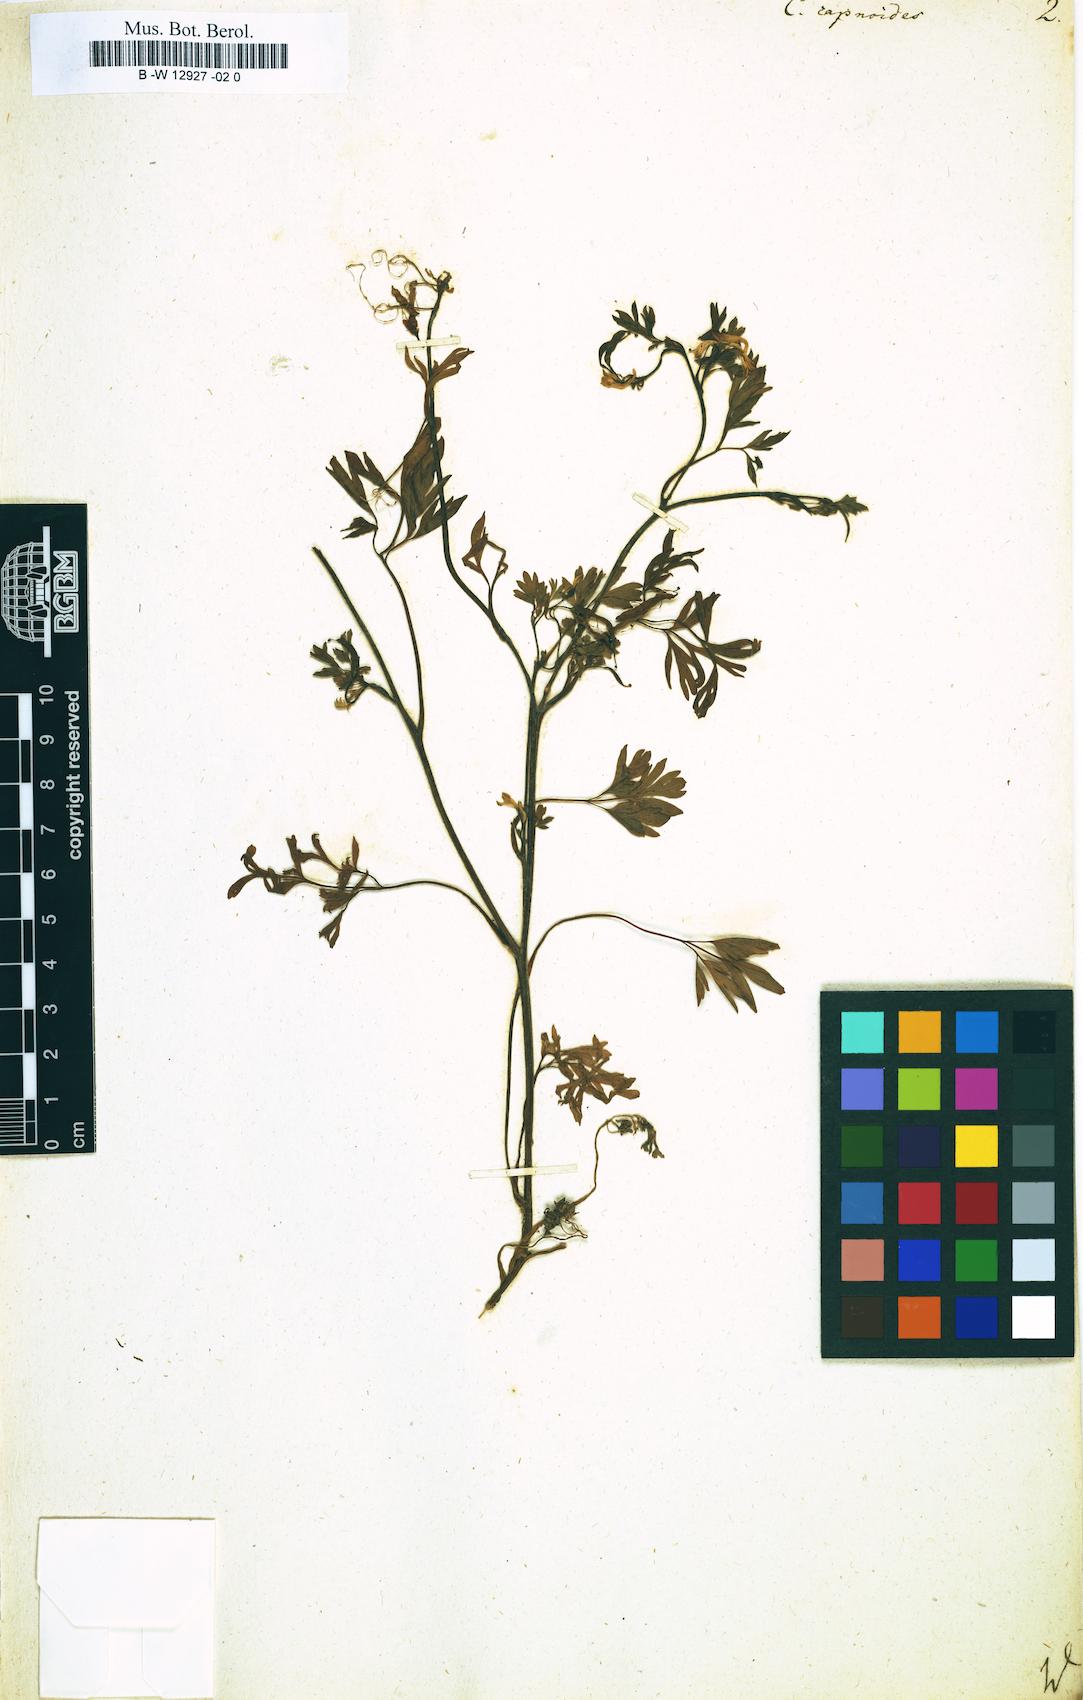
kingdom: Plantae
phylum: Tracheophyta
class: Magnoliopsida
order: Ranunculales
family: Papaveraceae
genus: Fumaria
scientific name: Fumaria capnoides
